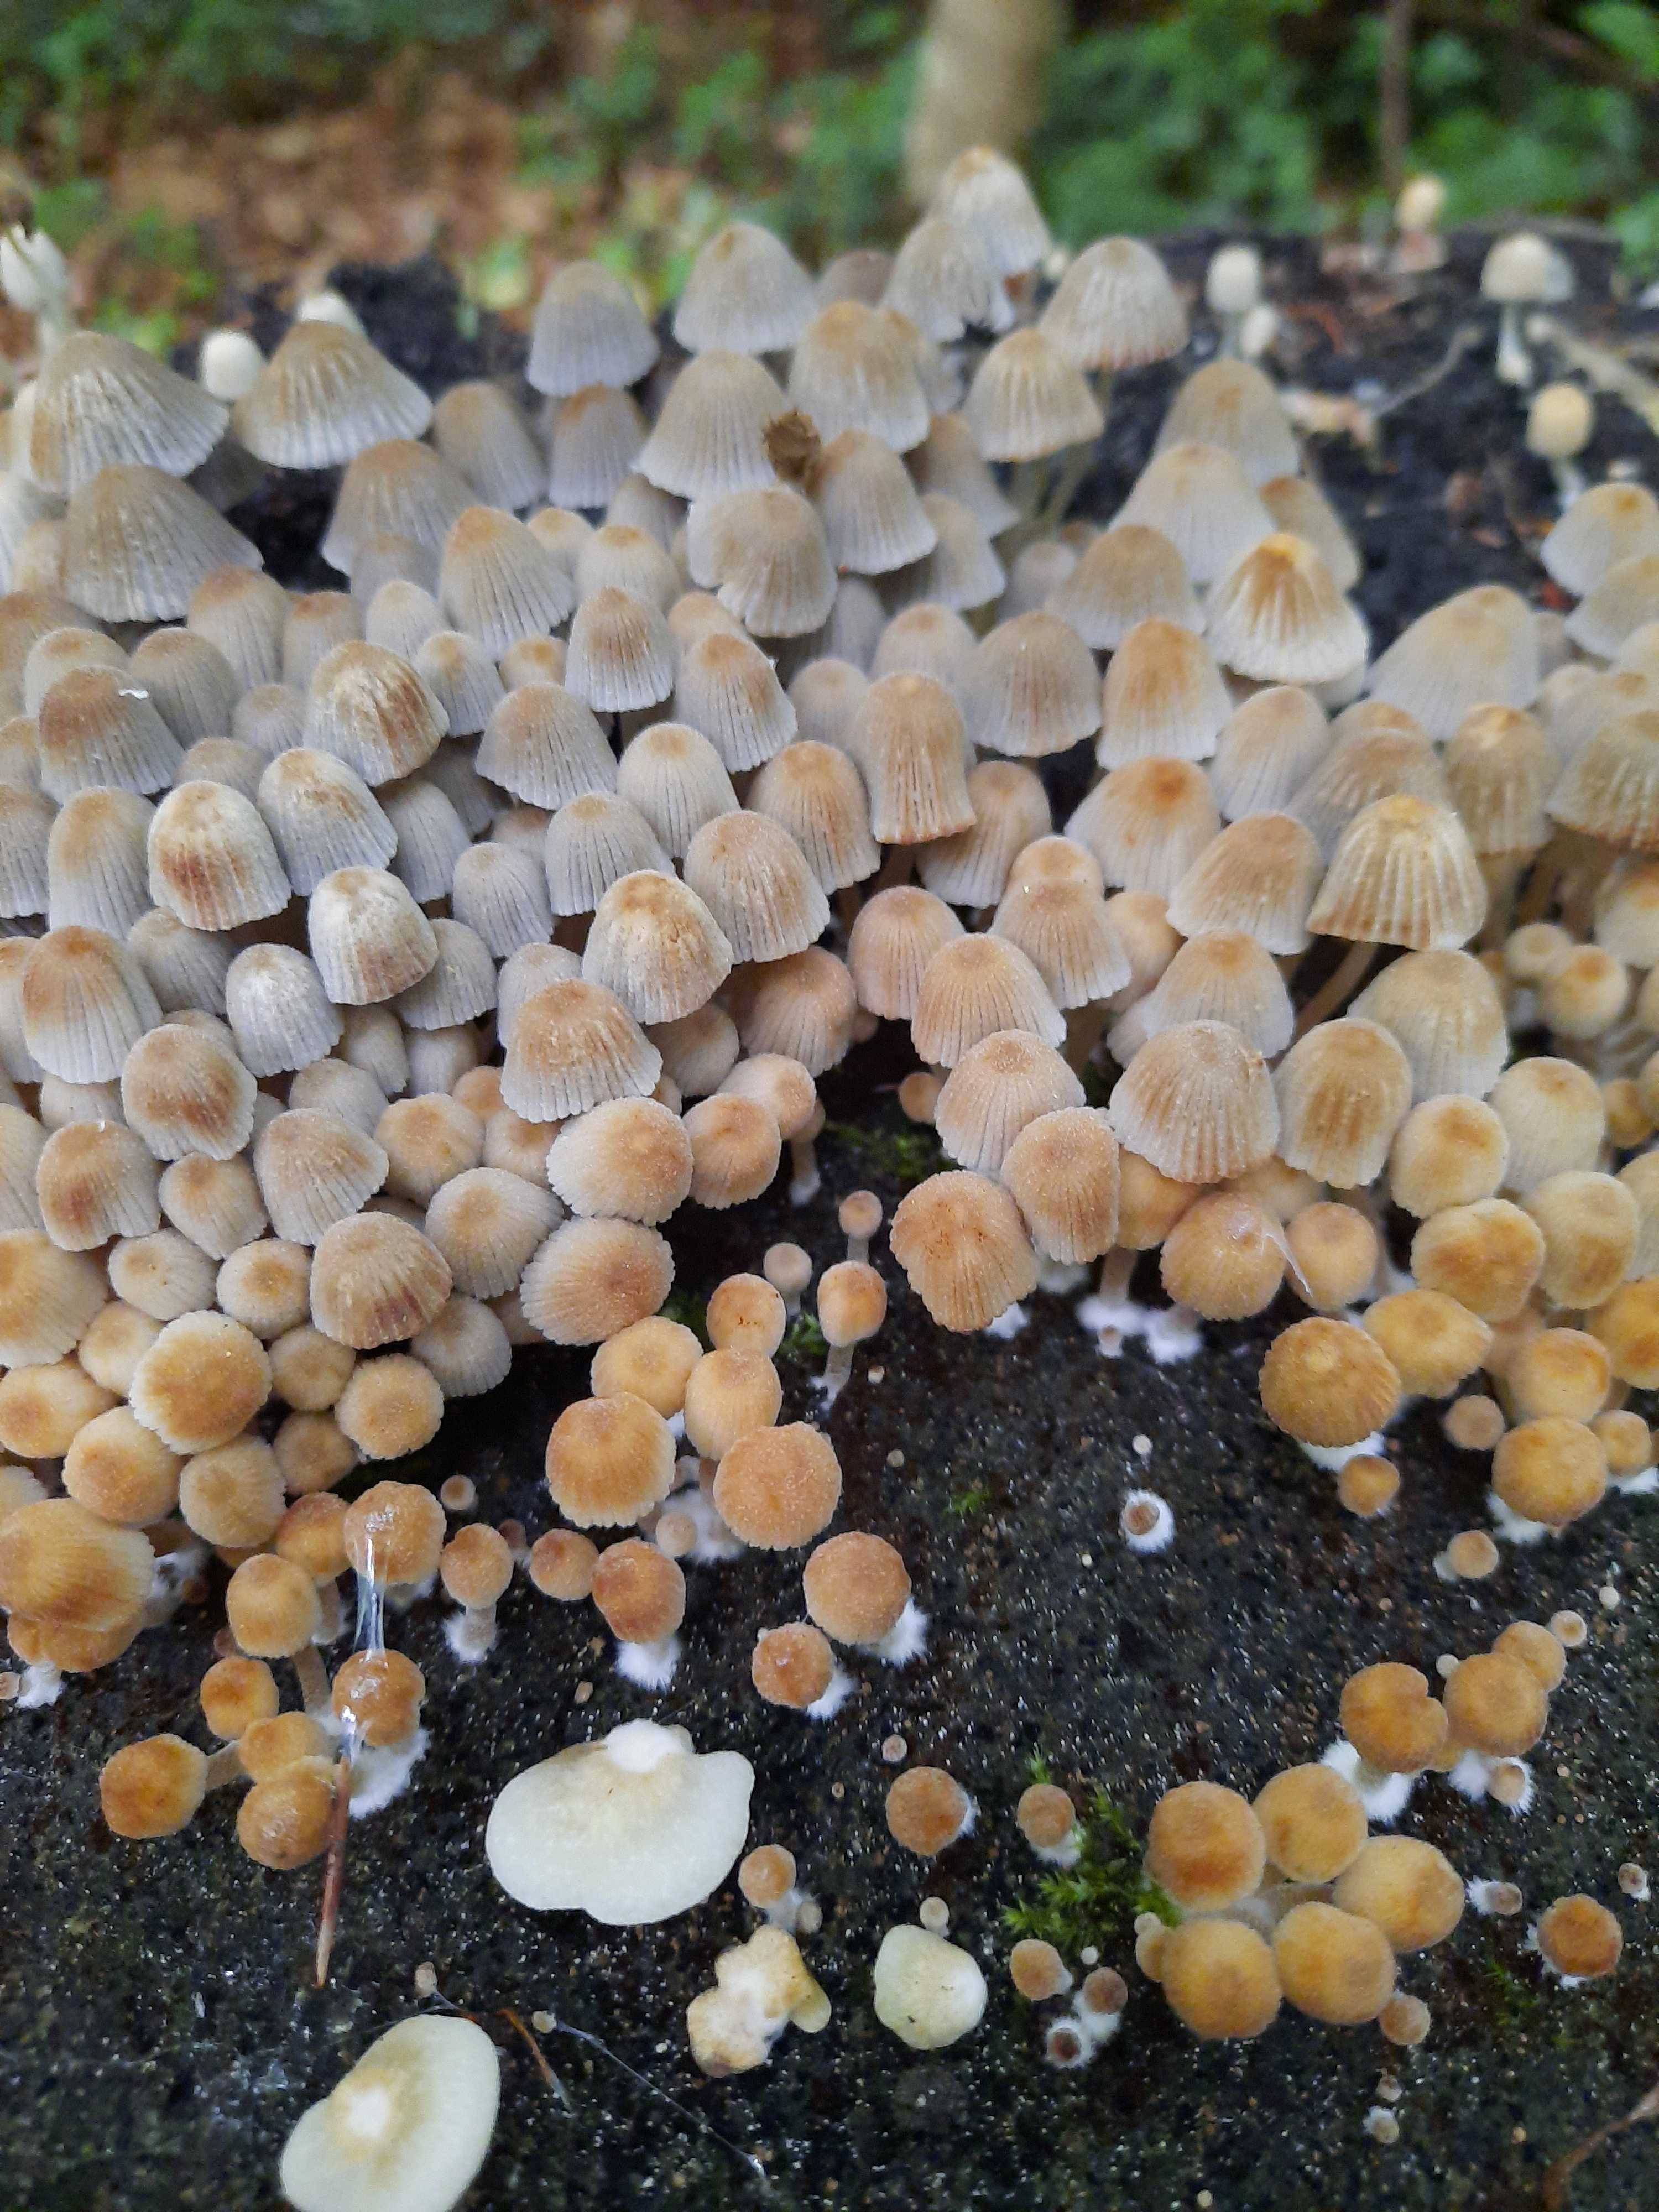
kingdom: Fungi
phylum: Basidiomycota
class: Agaricomycetes
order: Agaricales
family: Psathyrellaceae
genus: Coprinellus
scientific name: Coprinellus disseminatus
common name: bredsået blækhat
